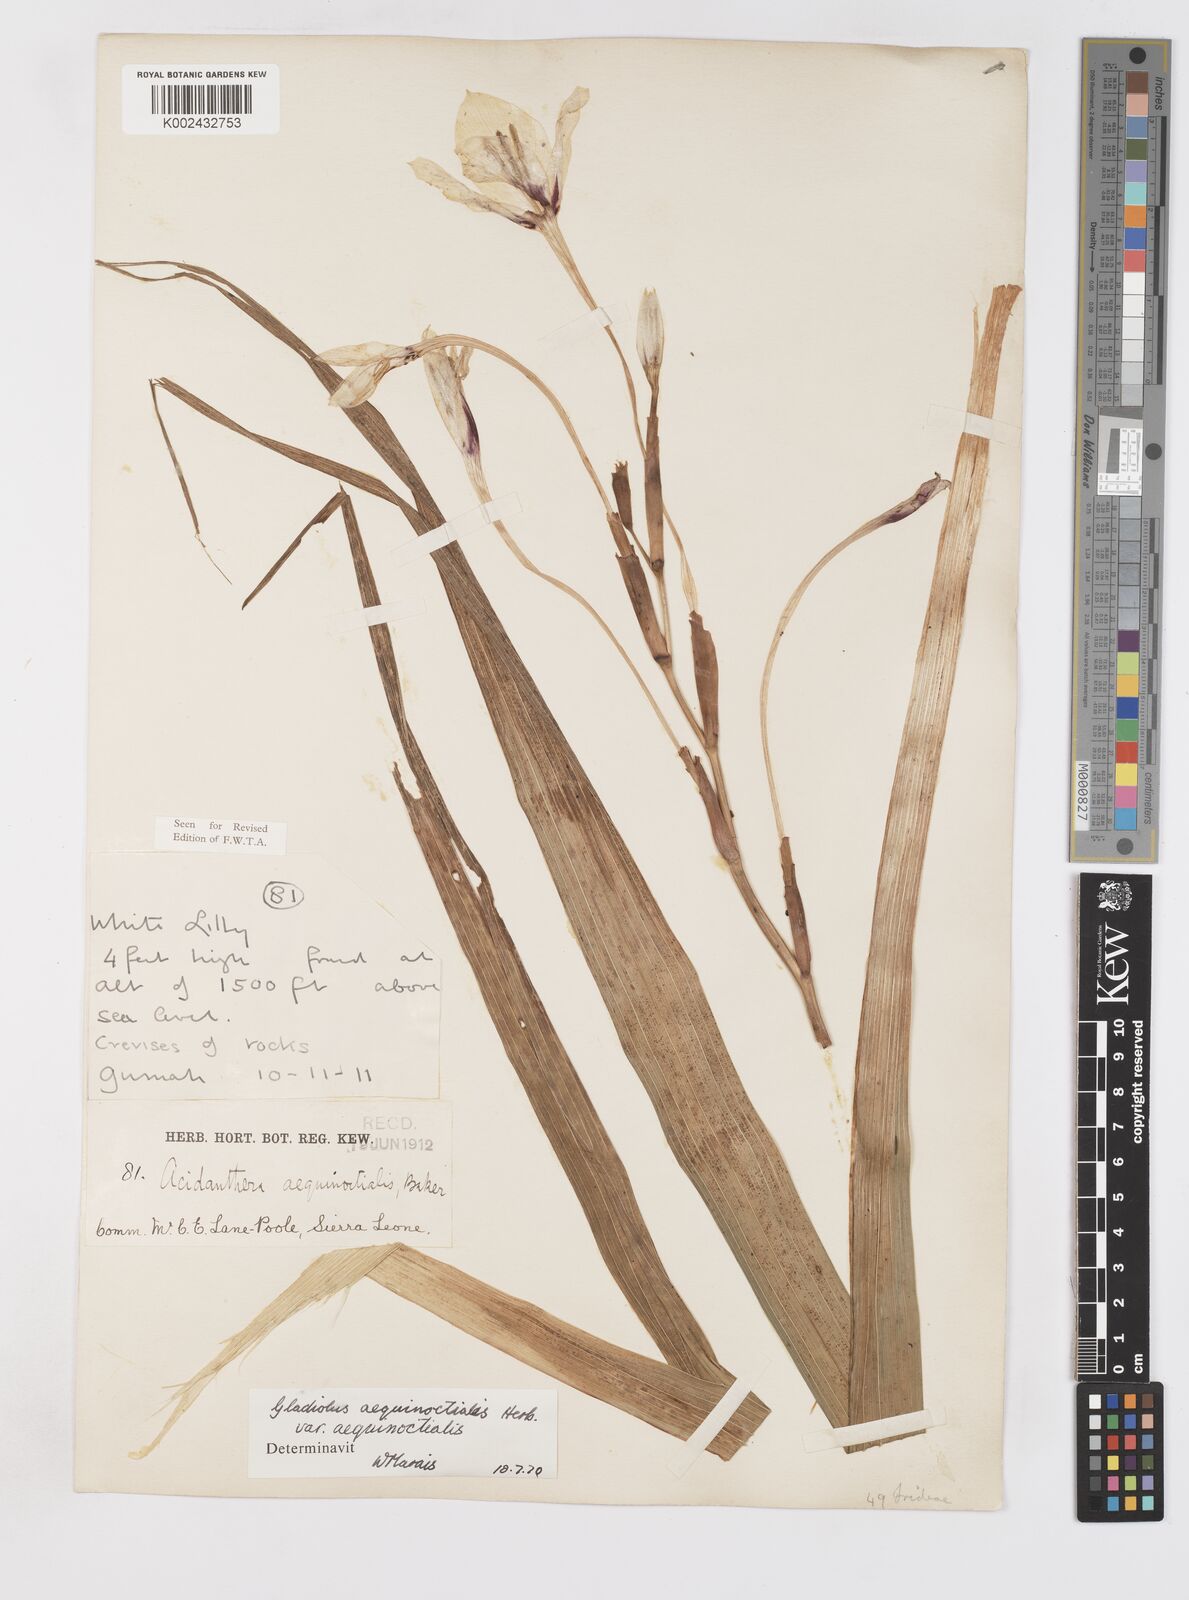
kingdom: Plantae
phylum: Tracheophyta
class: Liliopsida
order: Asparagales
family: Iridaceae
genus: Gladiolus
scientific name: Gladiolus aequinoctialis
